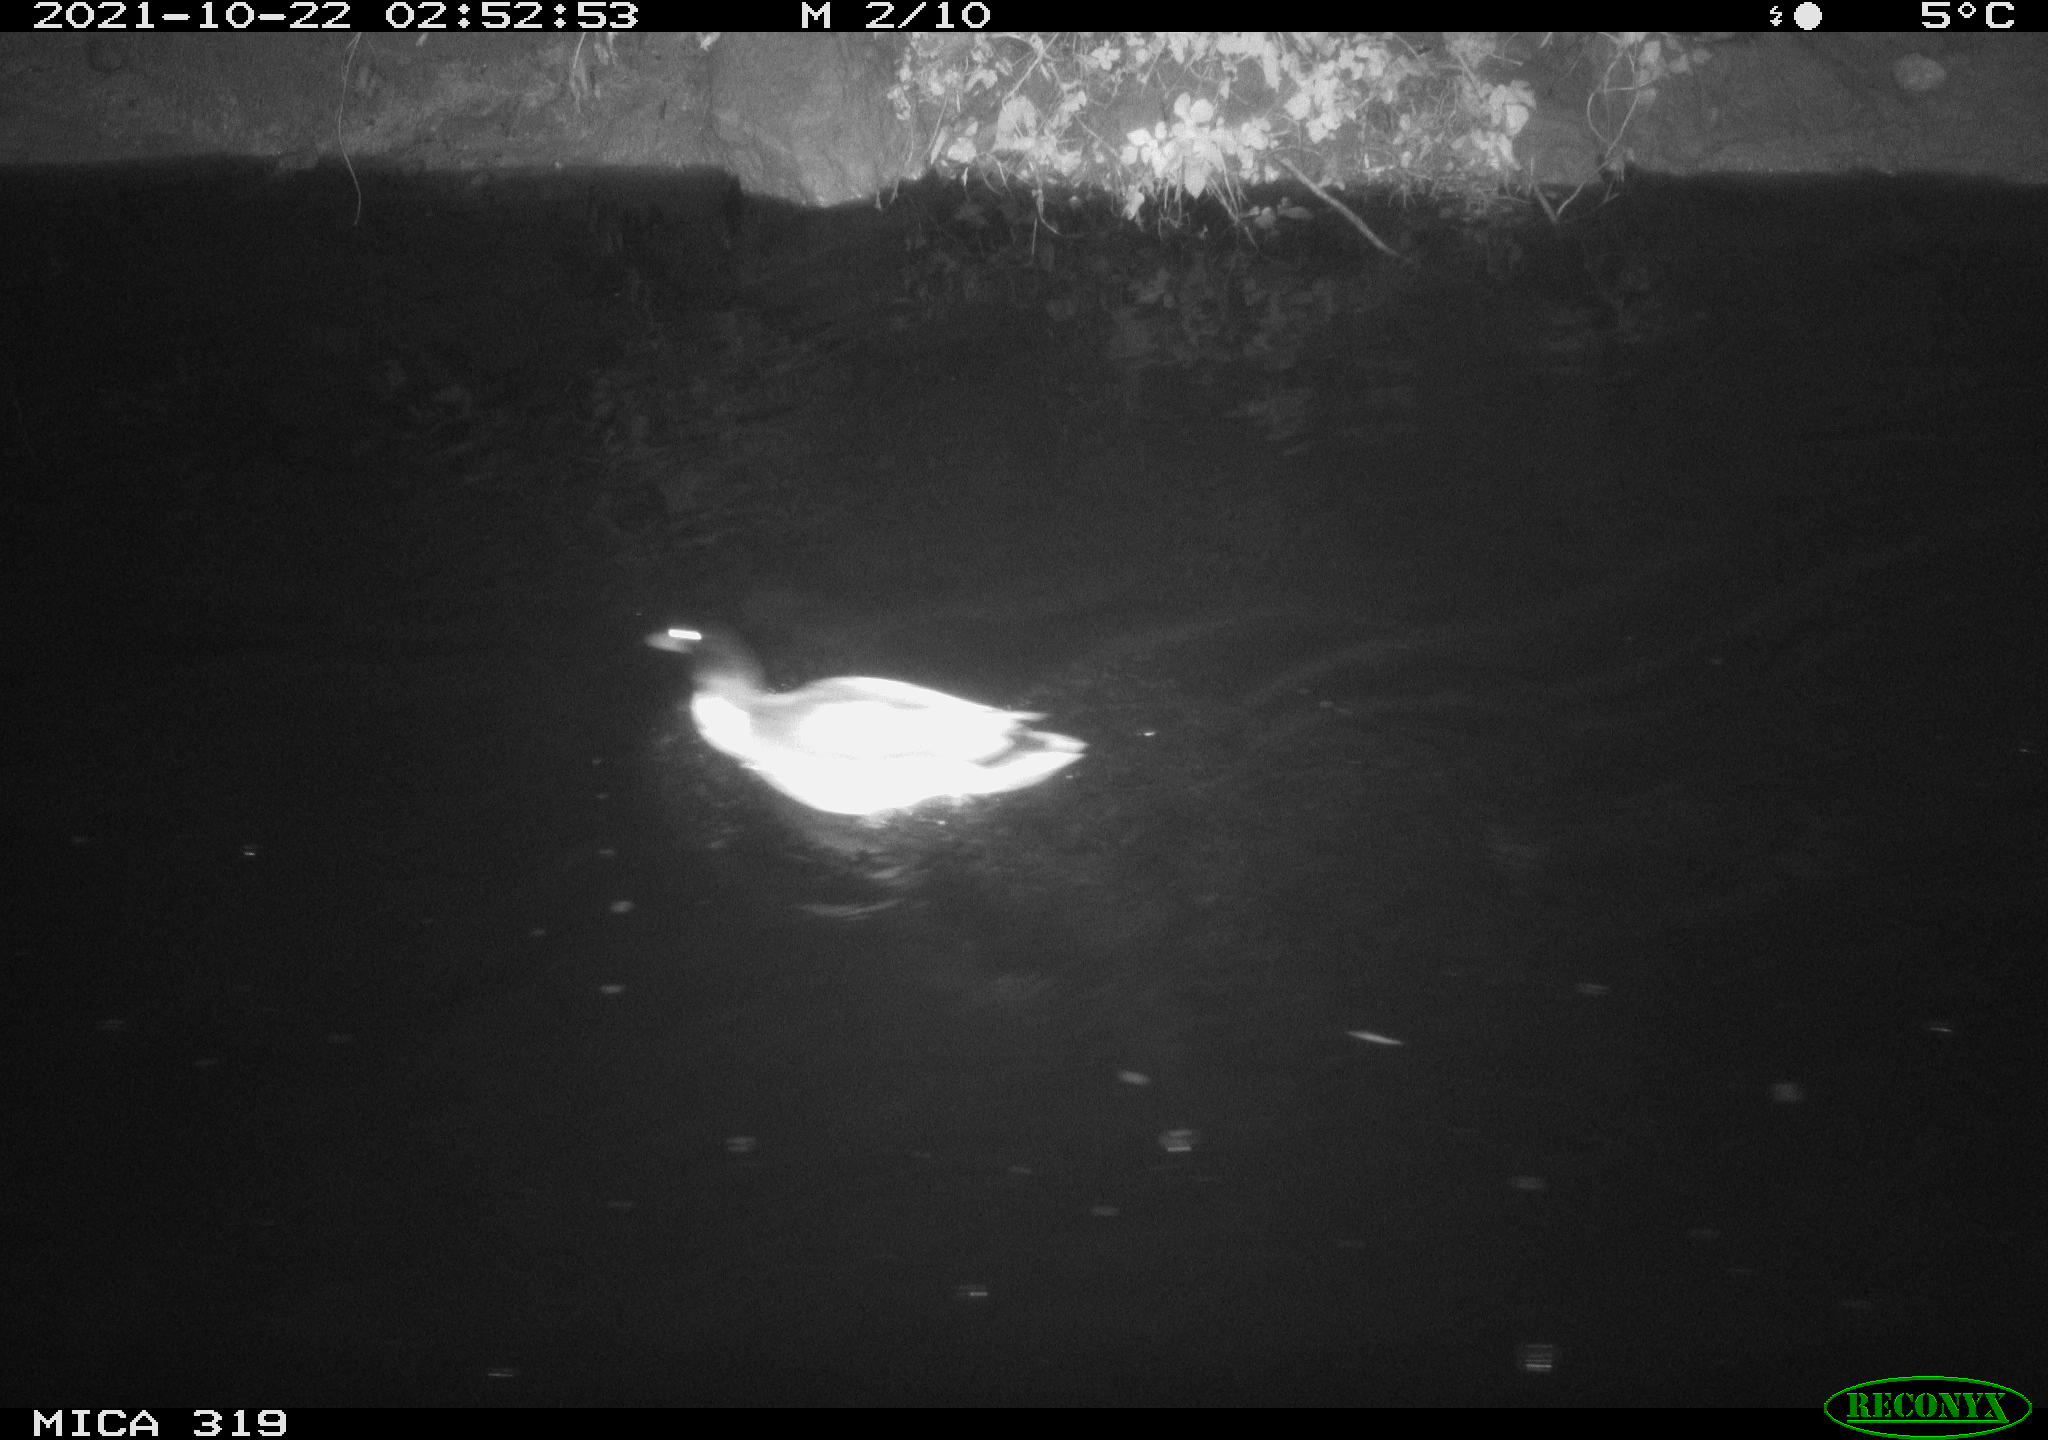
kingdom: Animalia
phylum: Chordata
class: Aves
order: Anseriformes
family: Anatidae
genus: Anas
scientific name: Anas platyrhynchos
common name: Mallard
